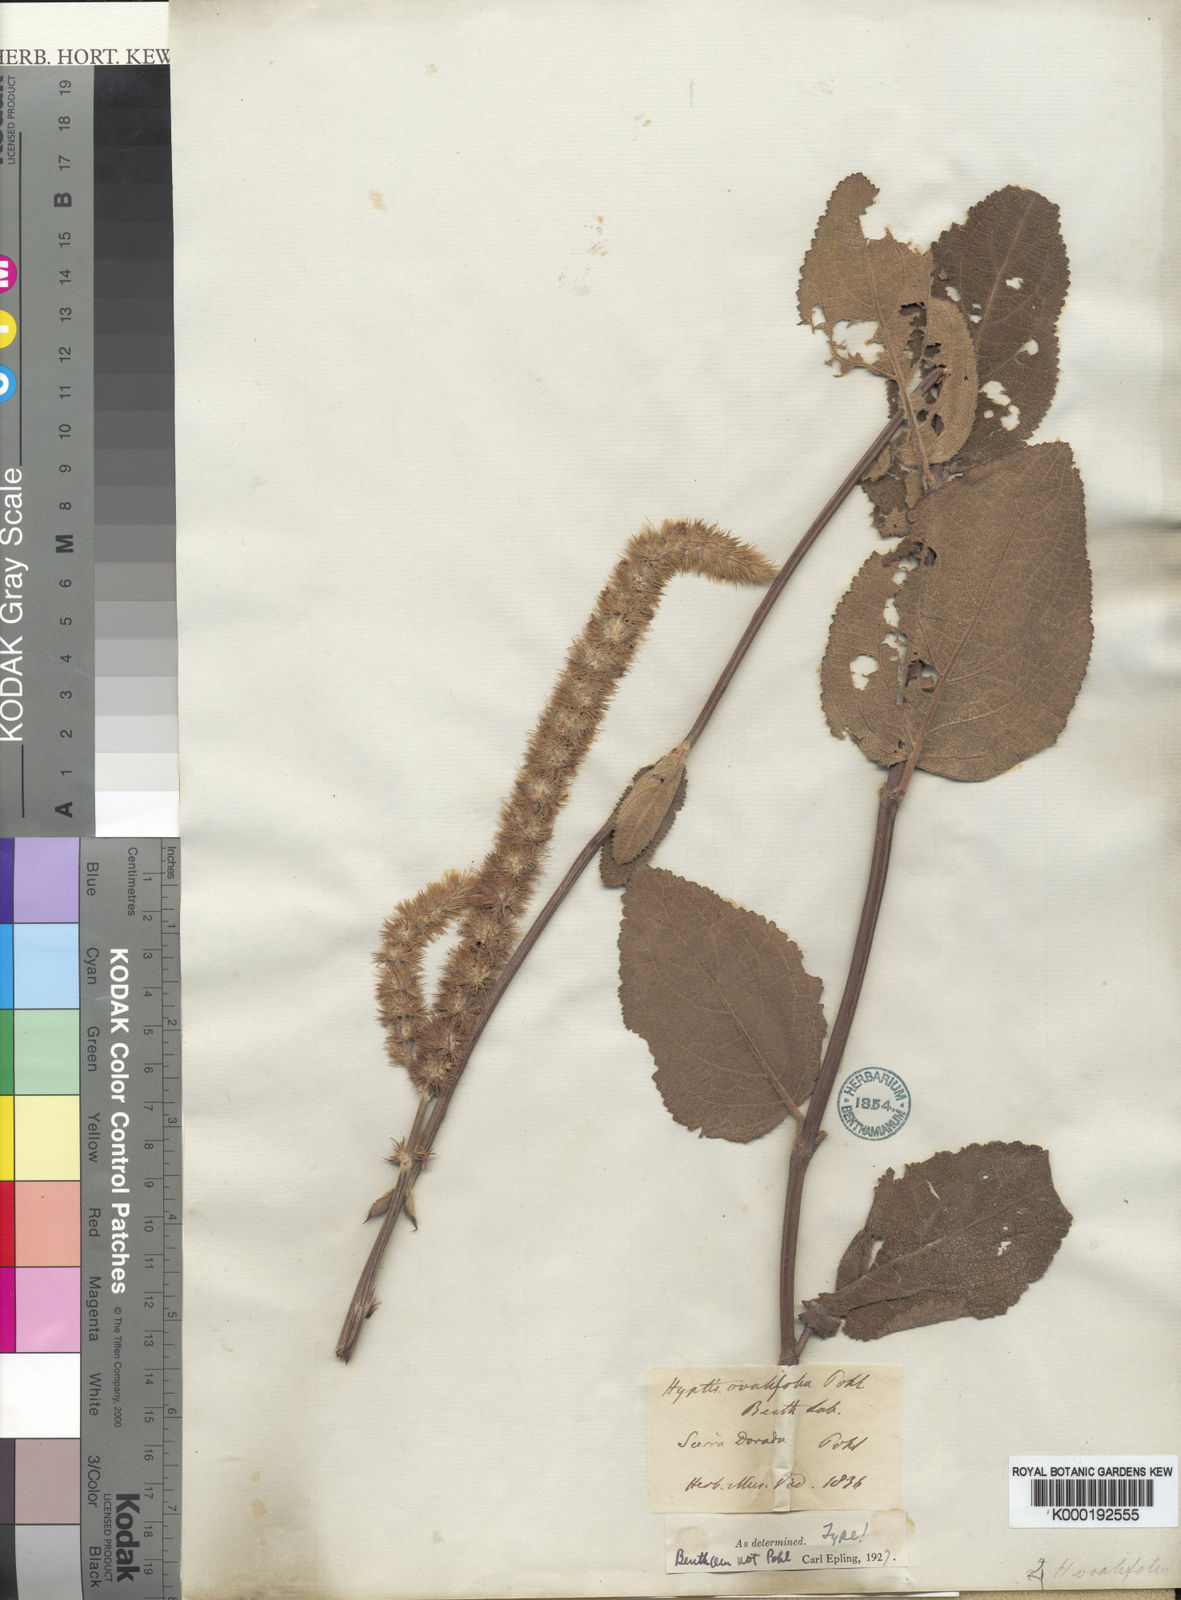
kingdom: Plantae
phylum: Tracheophyta
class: Magnoliopsida
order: Lamiales
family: Lamiaceae
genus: Hyptis
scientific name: Hyptis ovalifolia
